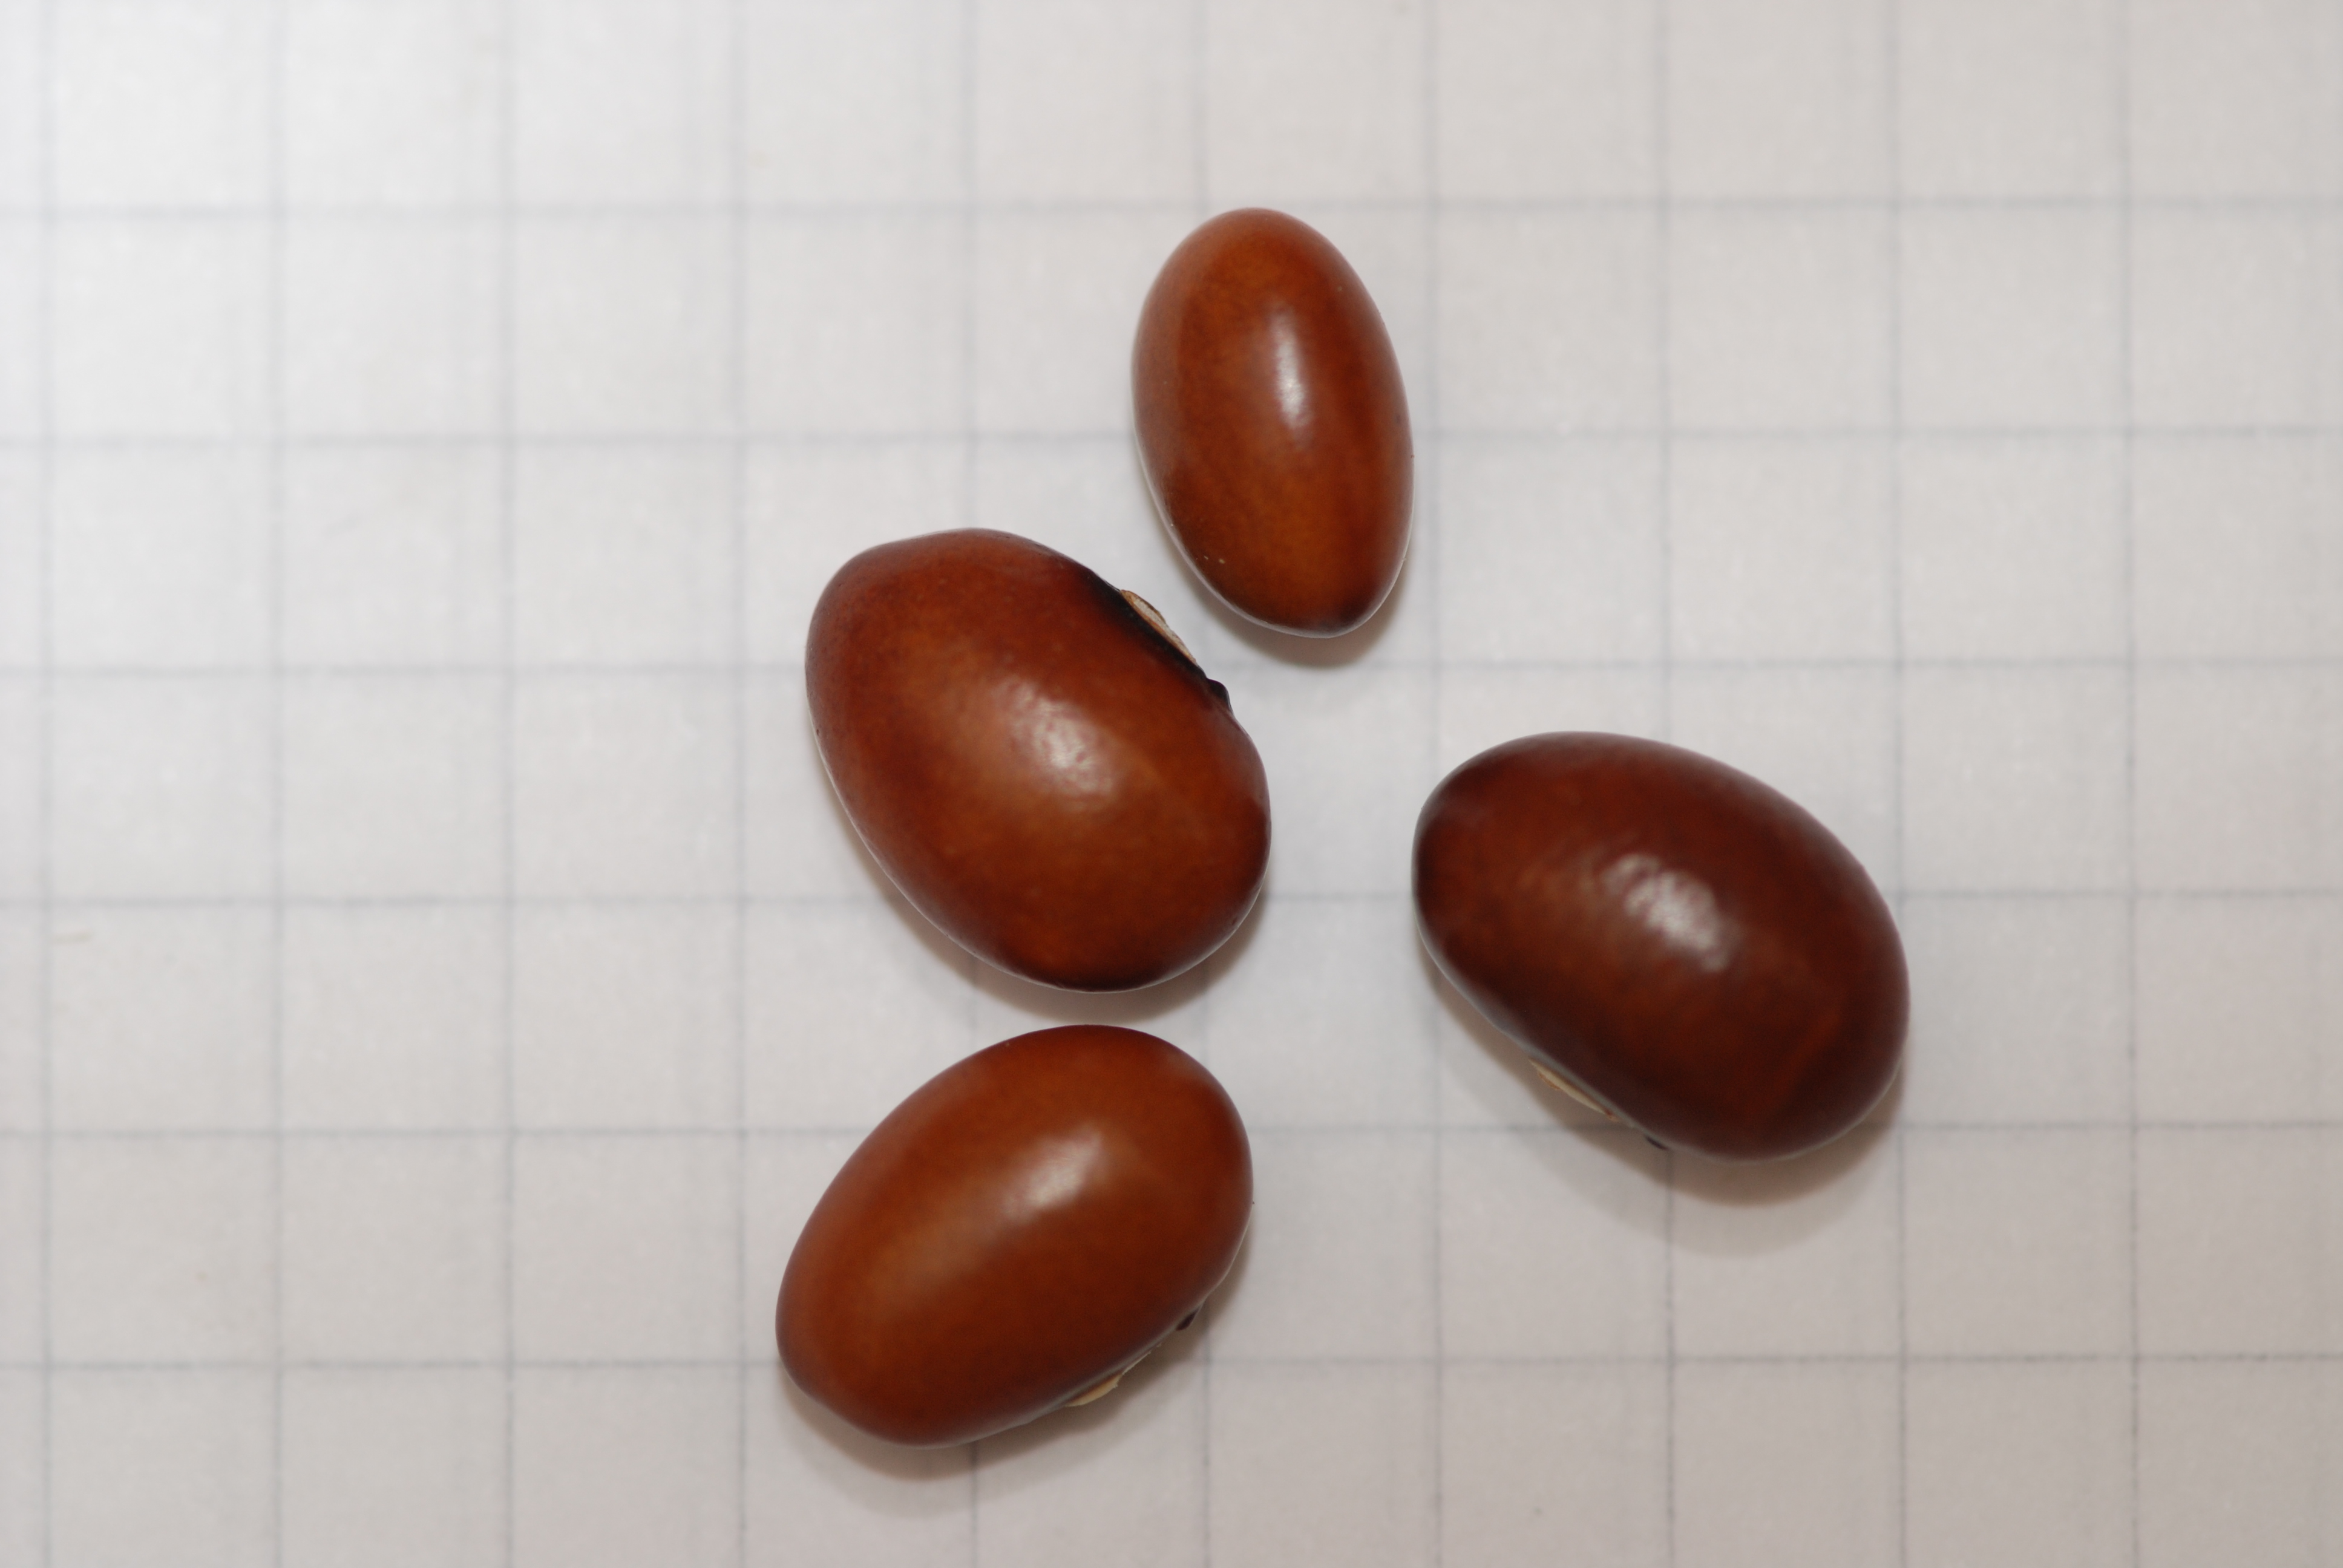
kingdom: Plantae
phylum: Tracheophyta
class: Magnoliopsida
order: Fabales
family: Fabaceae
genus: Phaseolus
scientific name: Phaseolus vulgaris
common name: Bean
